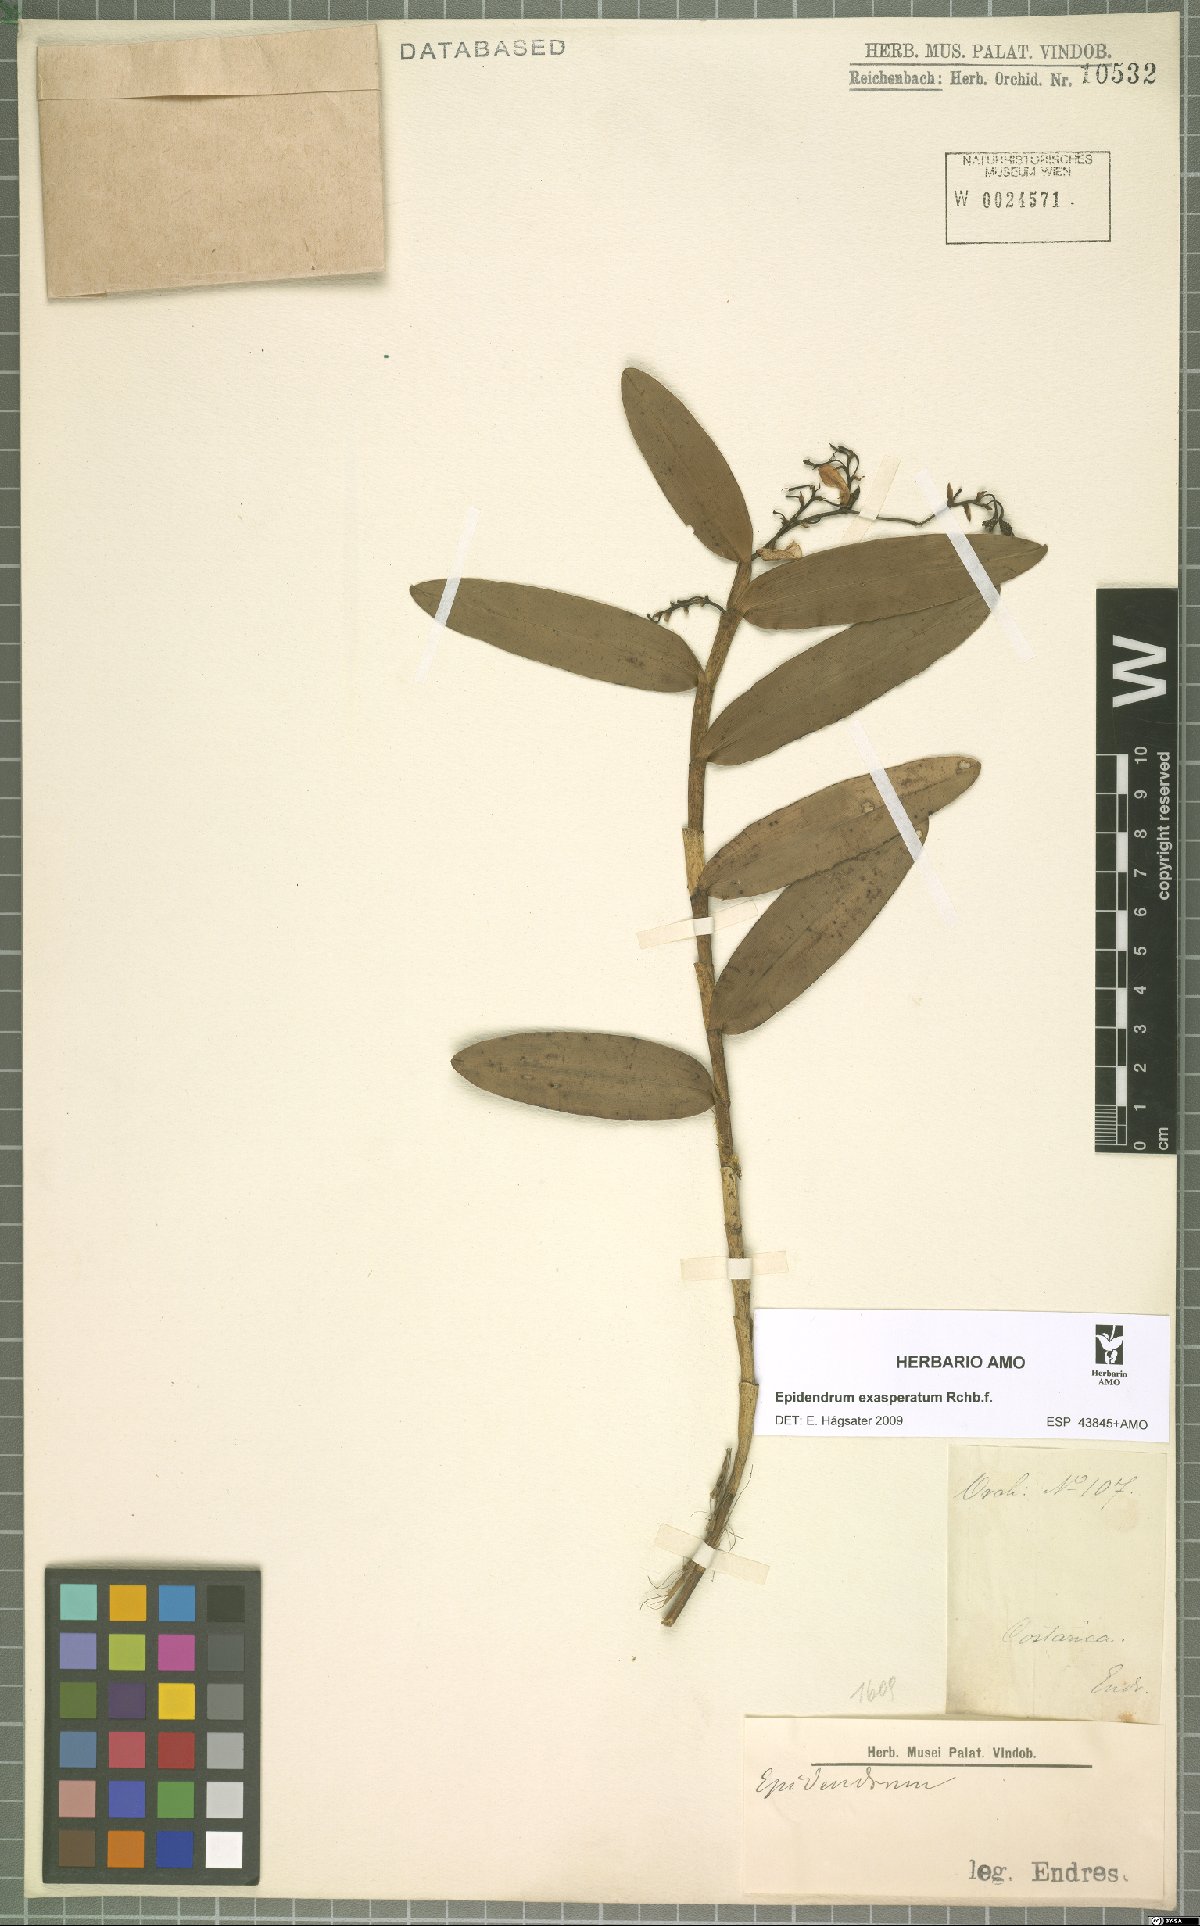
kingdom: Plantae
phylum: Tracheophyta
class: Liliopsida
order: Asparagales
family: Orchidaceae
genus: Epidendrum
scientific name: Epidendrum exasperatum
